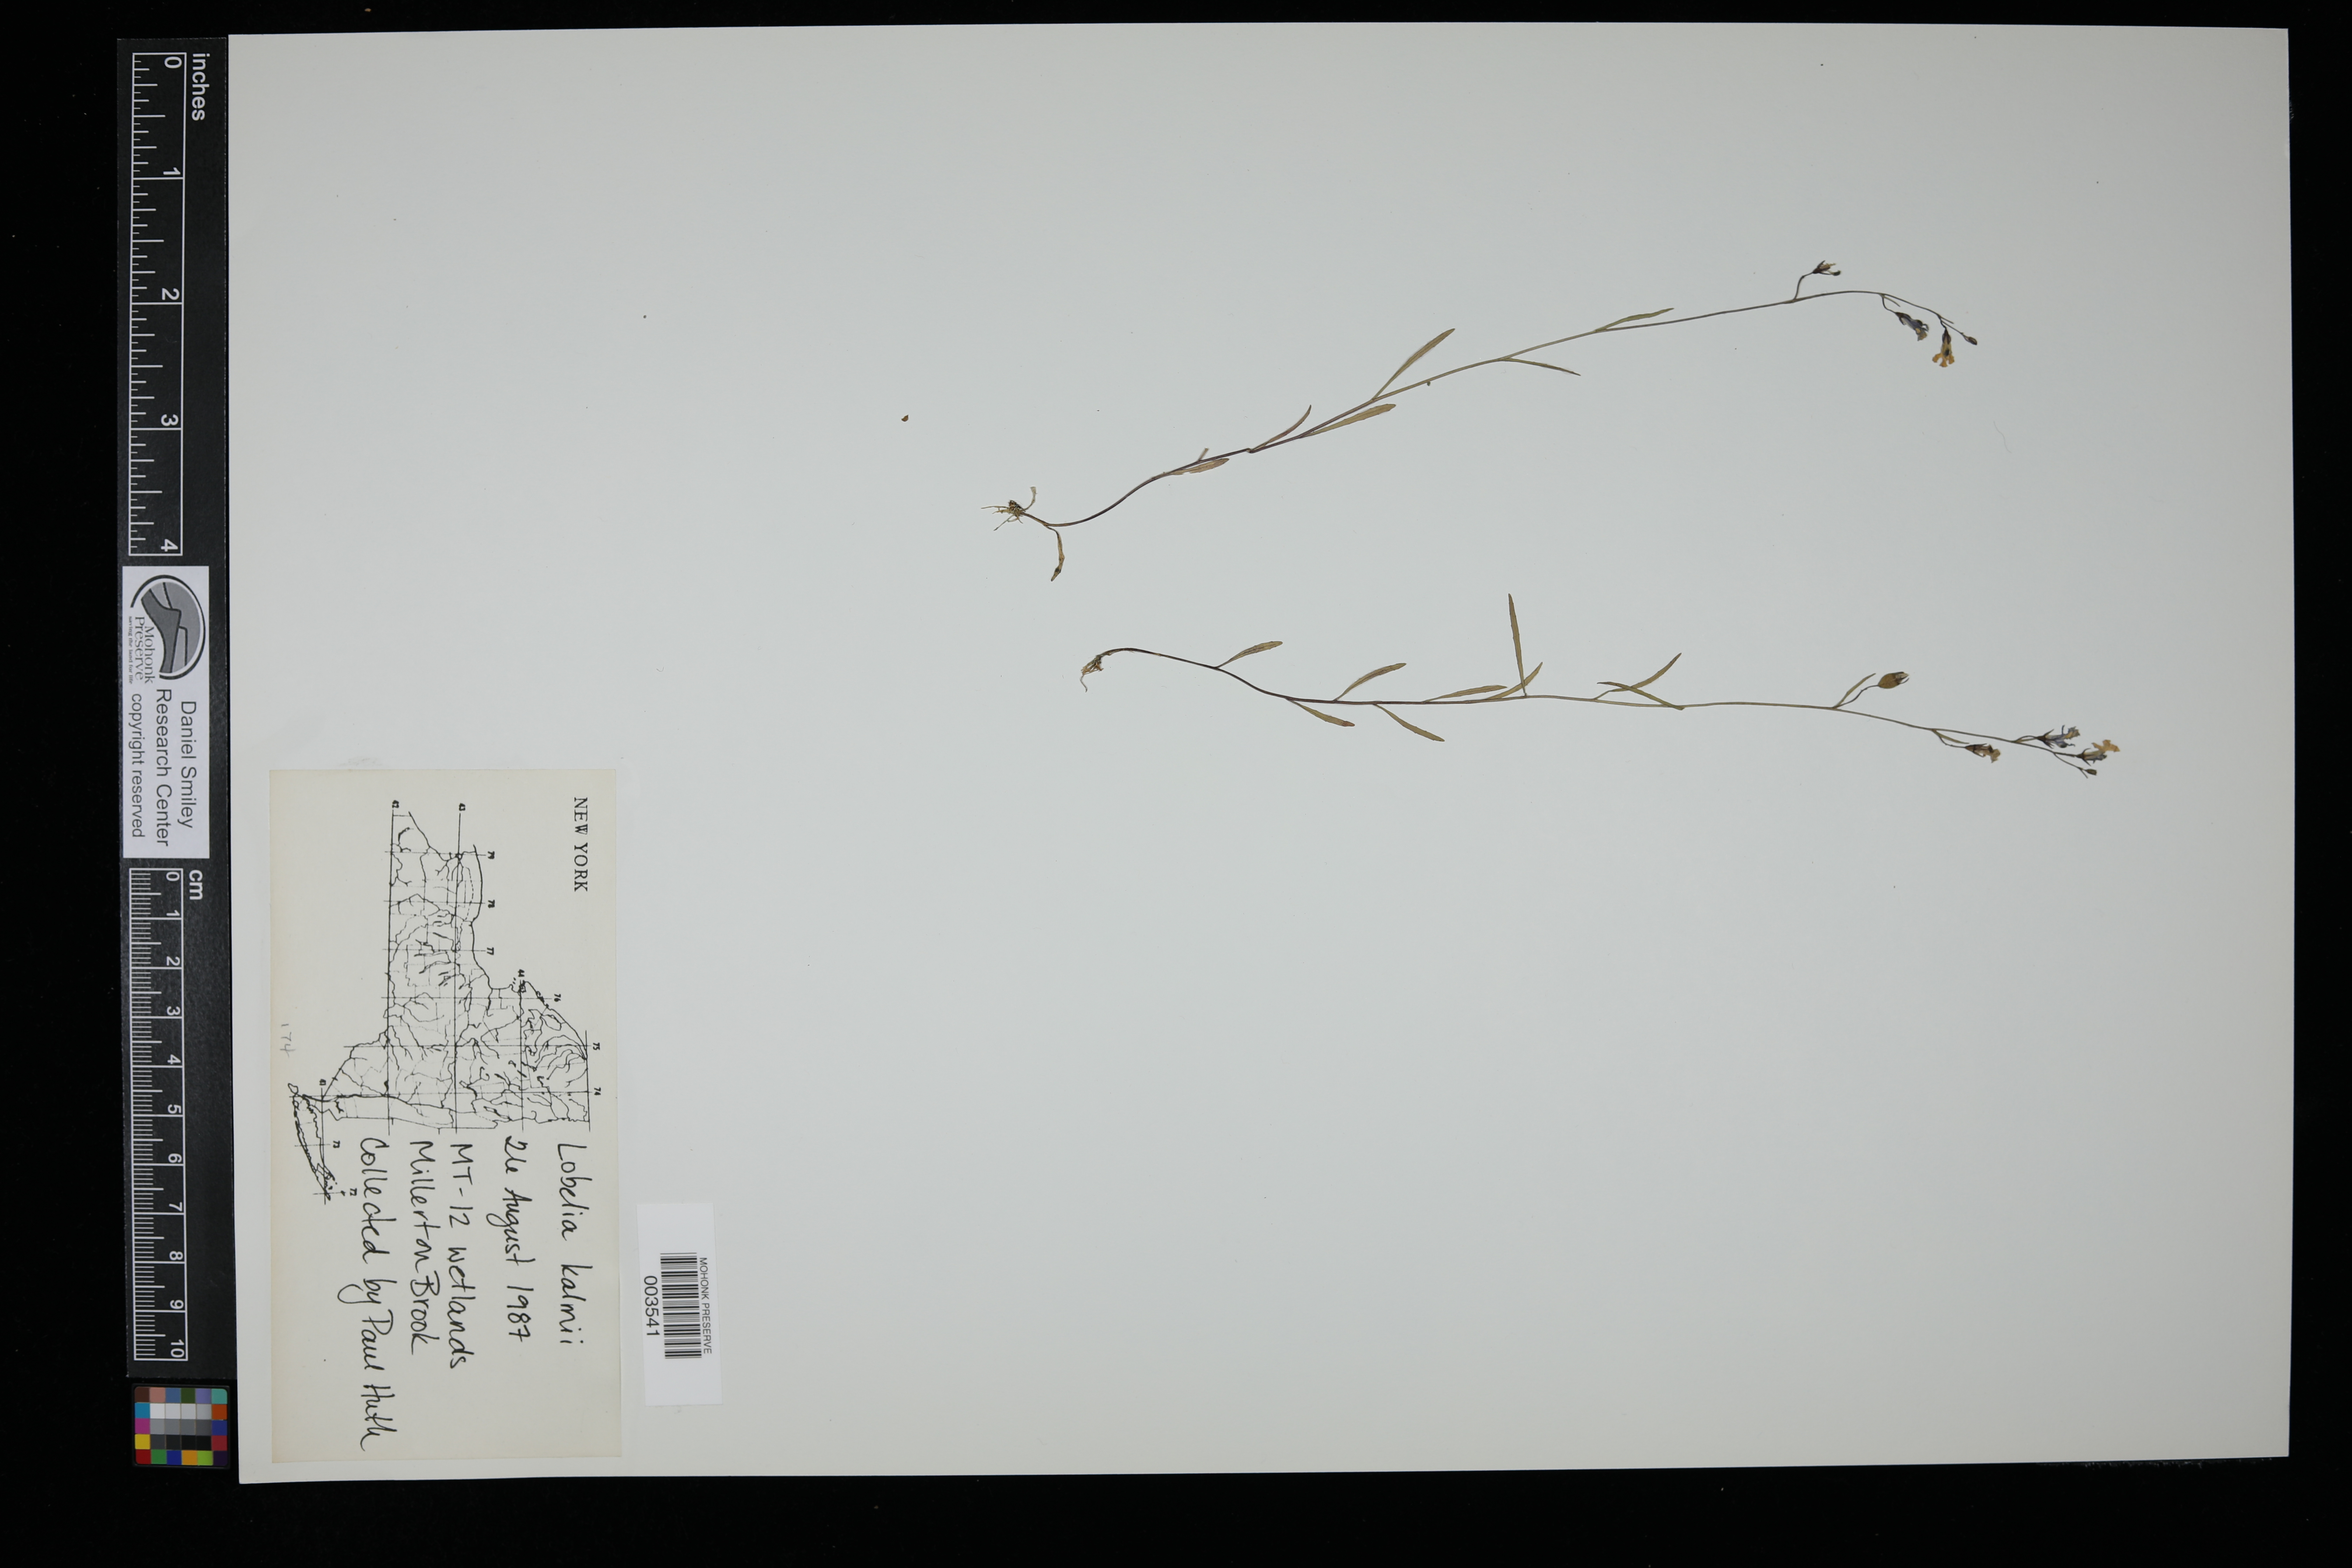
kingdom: Plantae
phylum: Tracheophyta
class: Magnoliopsida
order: Asterales
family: Campanulaceae
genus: Lobelia
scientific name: Lobelia kalmii
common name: Kalm's lobelia
